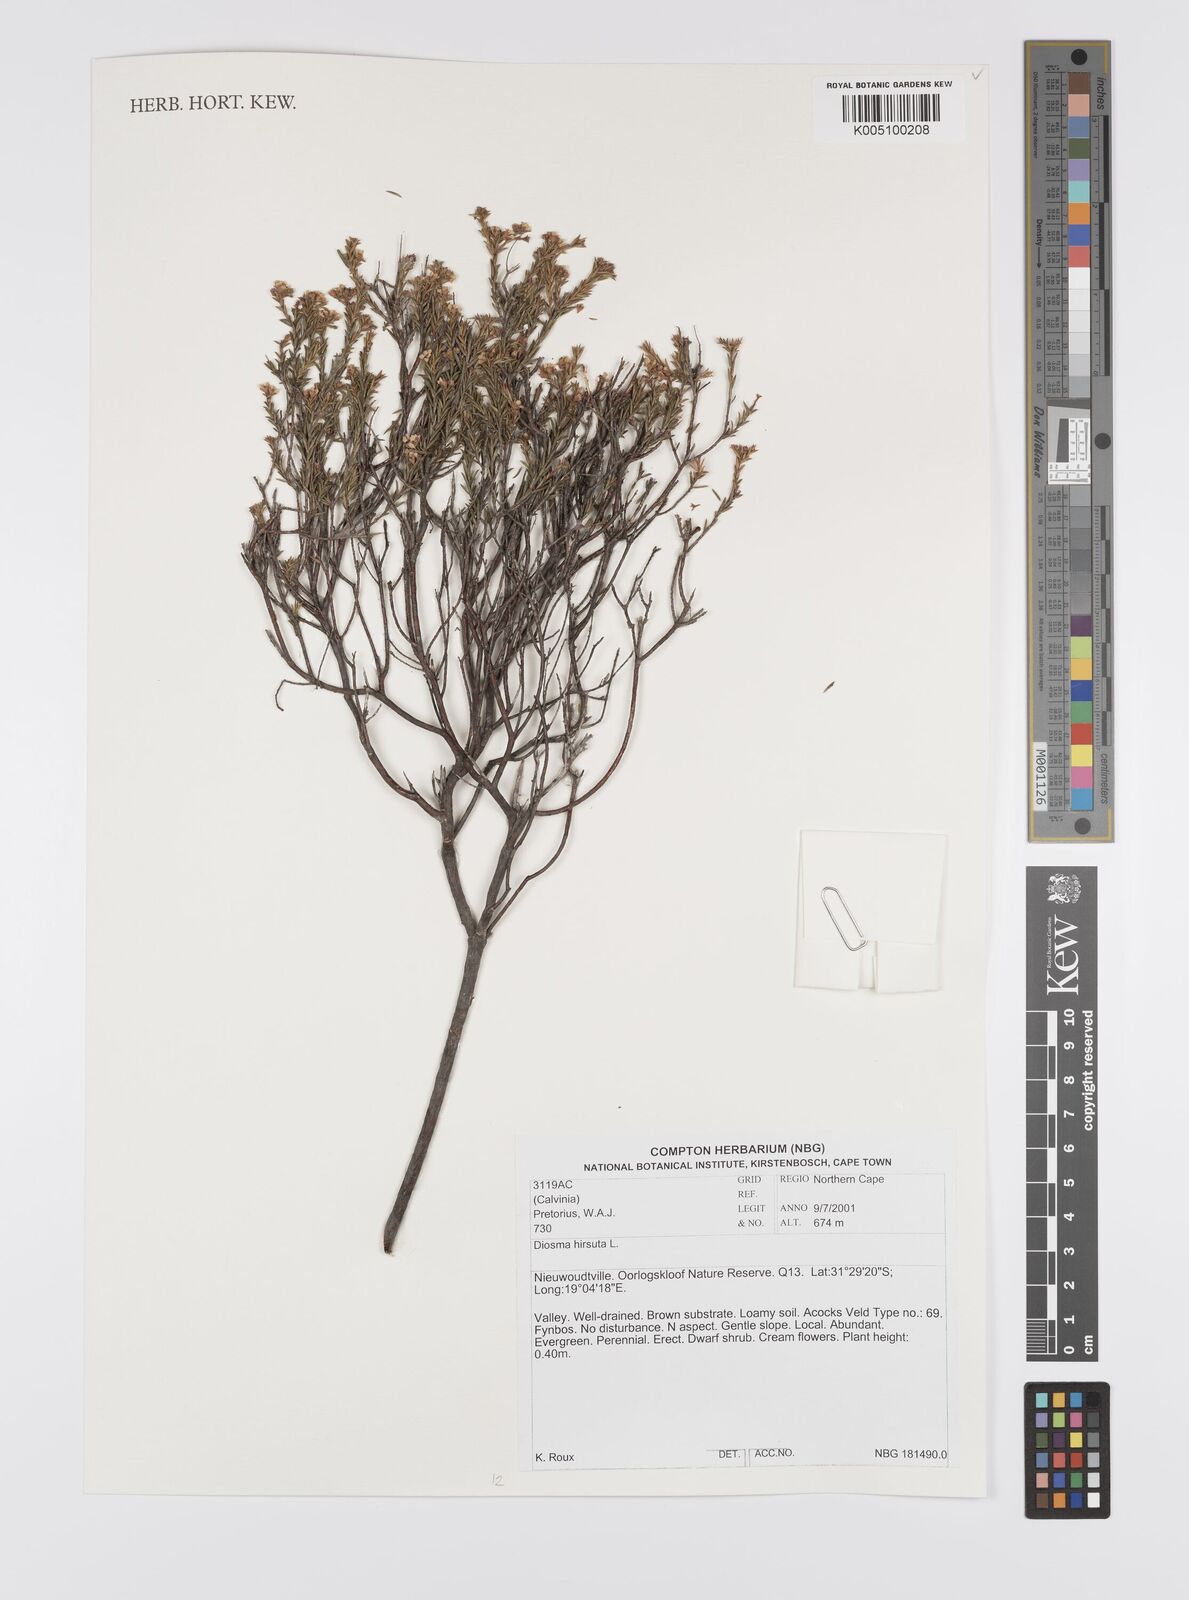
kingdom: Plantae
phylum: Tracheophyta
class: Magnoliopsida
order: Sapindales
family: Rutaceae
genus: Diosma
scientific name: Diosma hirsuta
